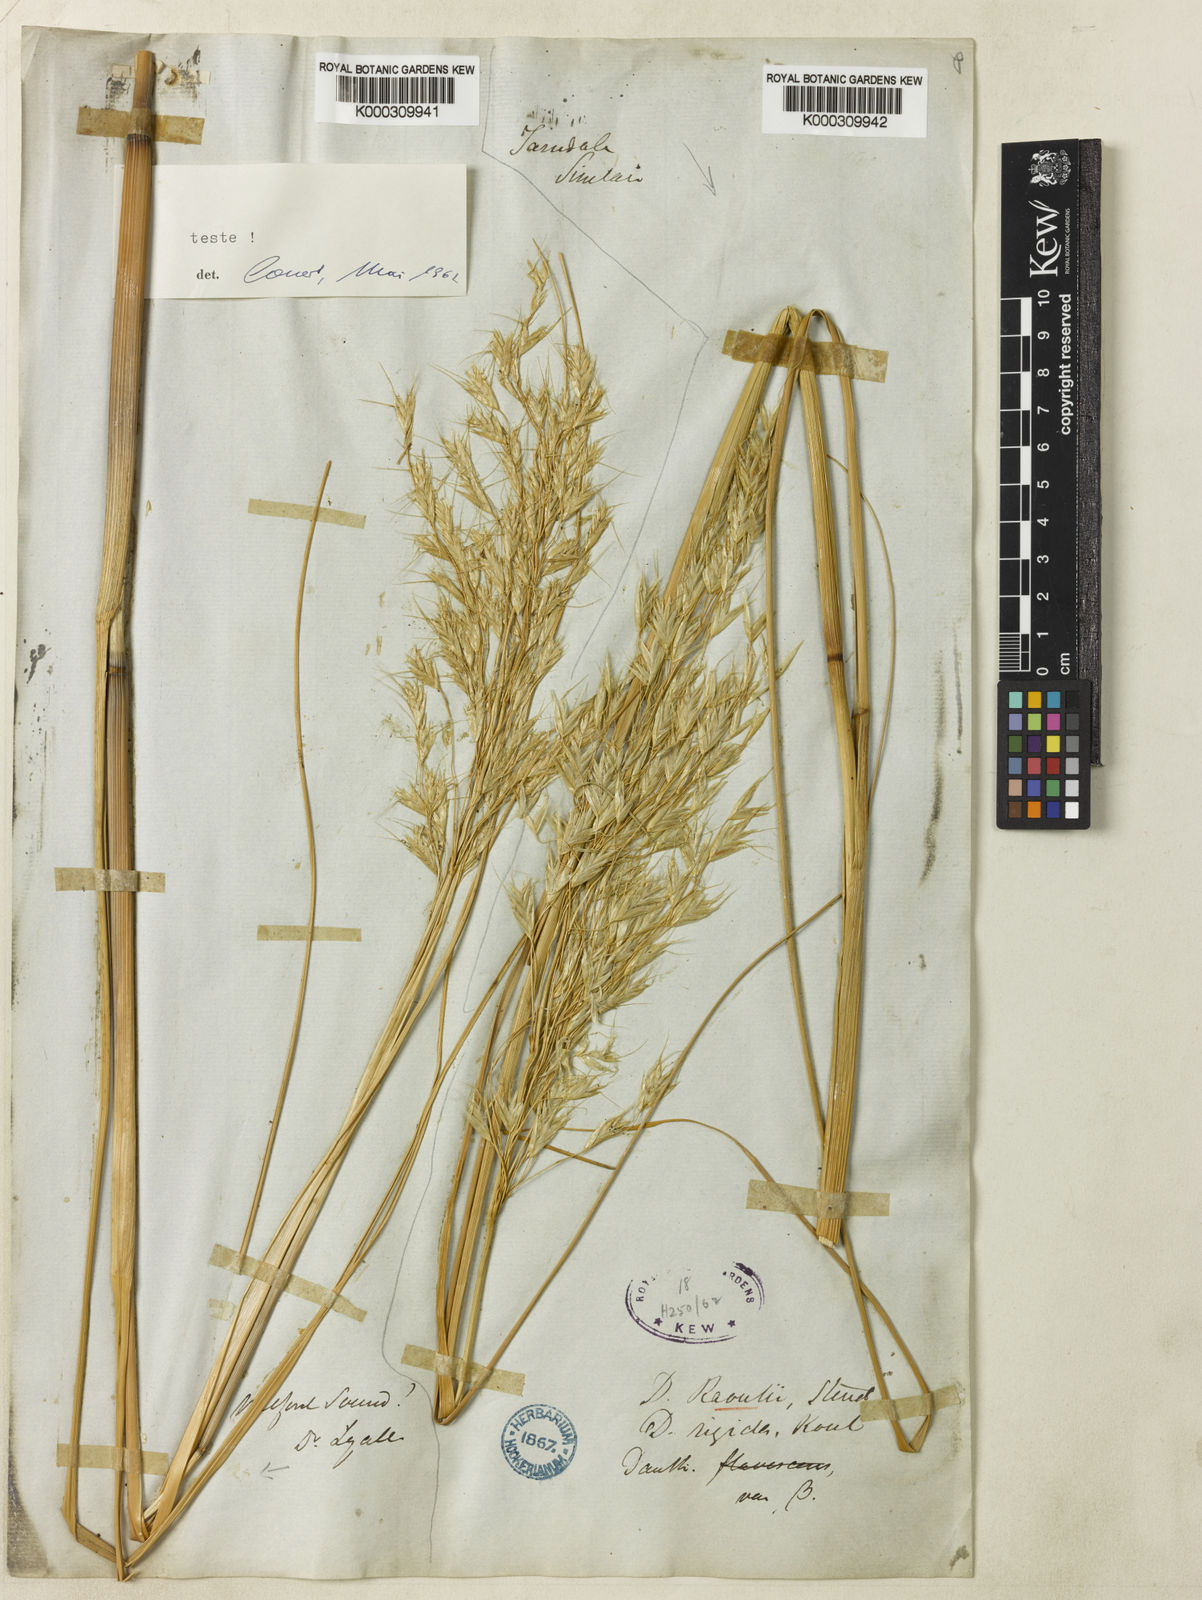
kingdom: Plantae
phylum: Tracheophyta
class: Liliopsida
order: Poales
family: Poaceae
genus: Chionochloa
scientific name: Chionochloa flavescens
